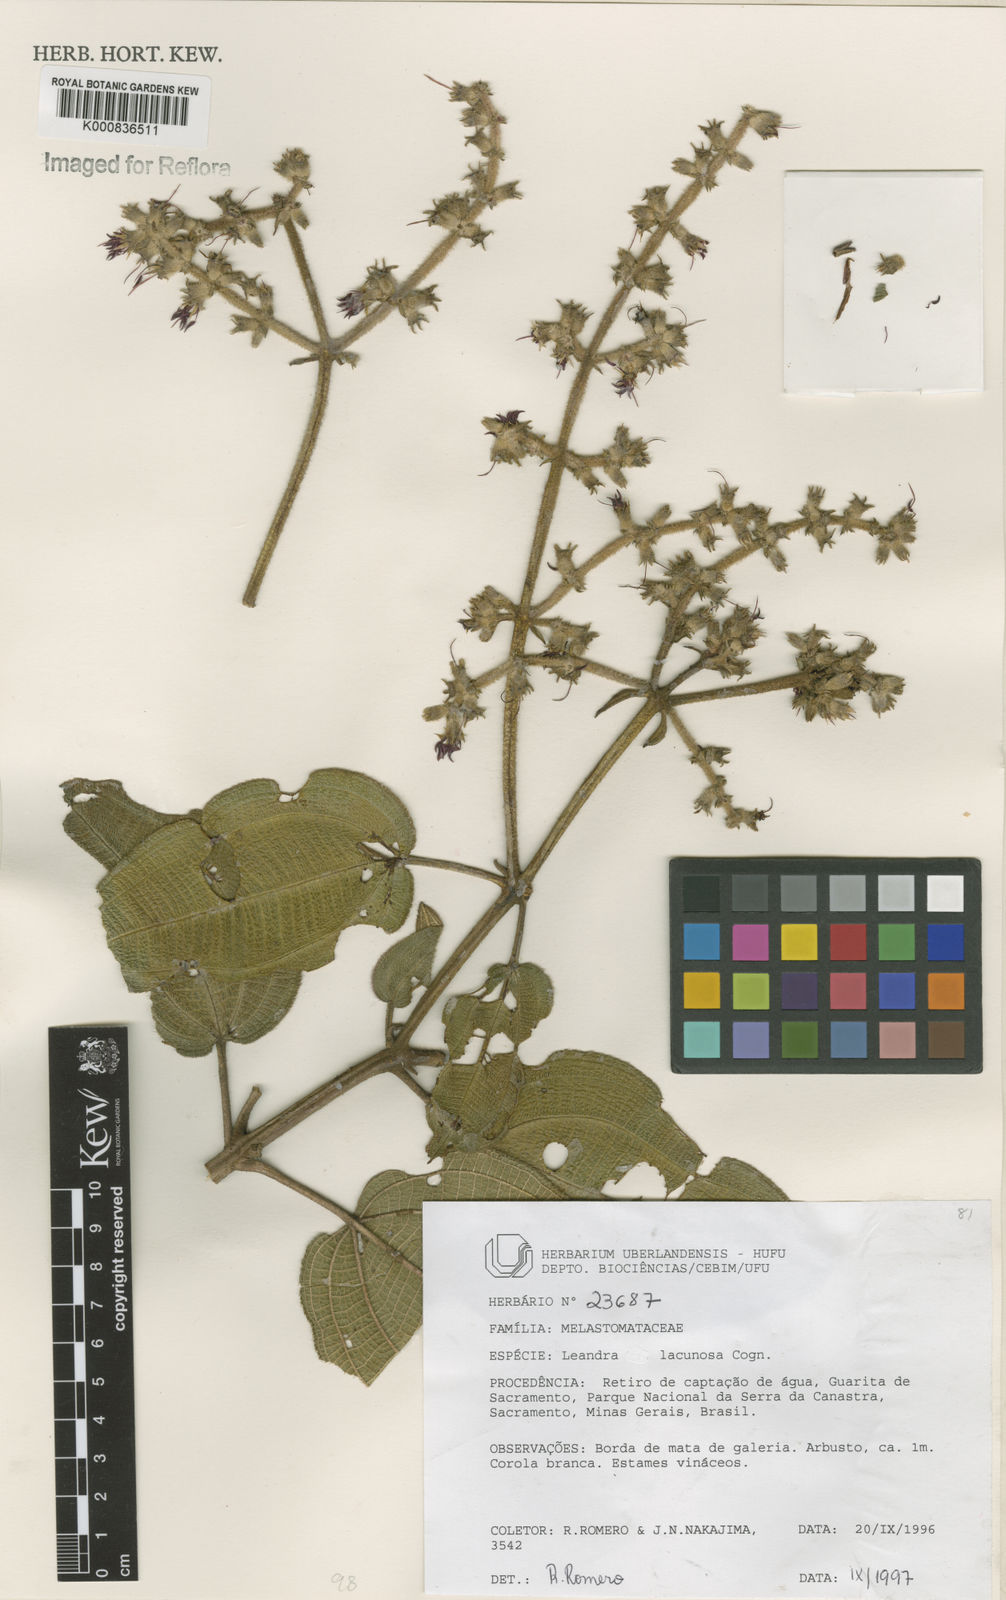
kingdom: Plantae
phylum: Tracheophyta
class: Magnoliopsida
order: Myrtales
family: Melastomataceae
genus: Miconia
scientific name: Miconia lacunosa
